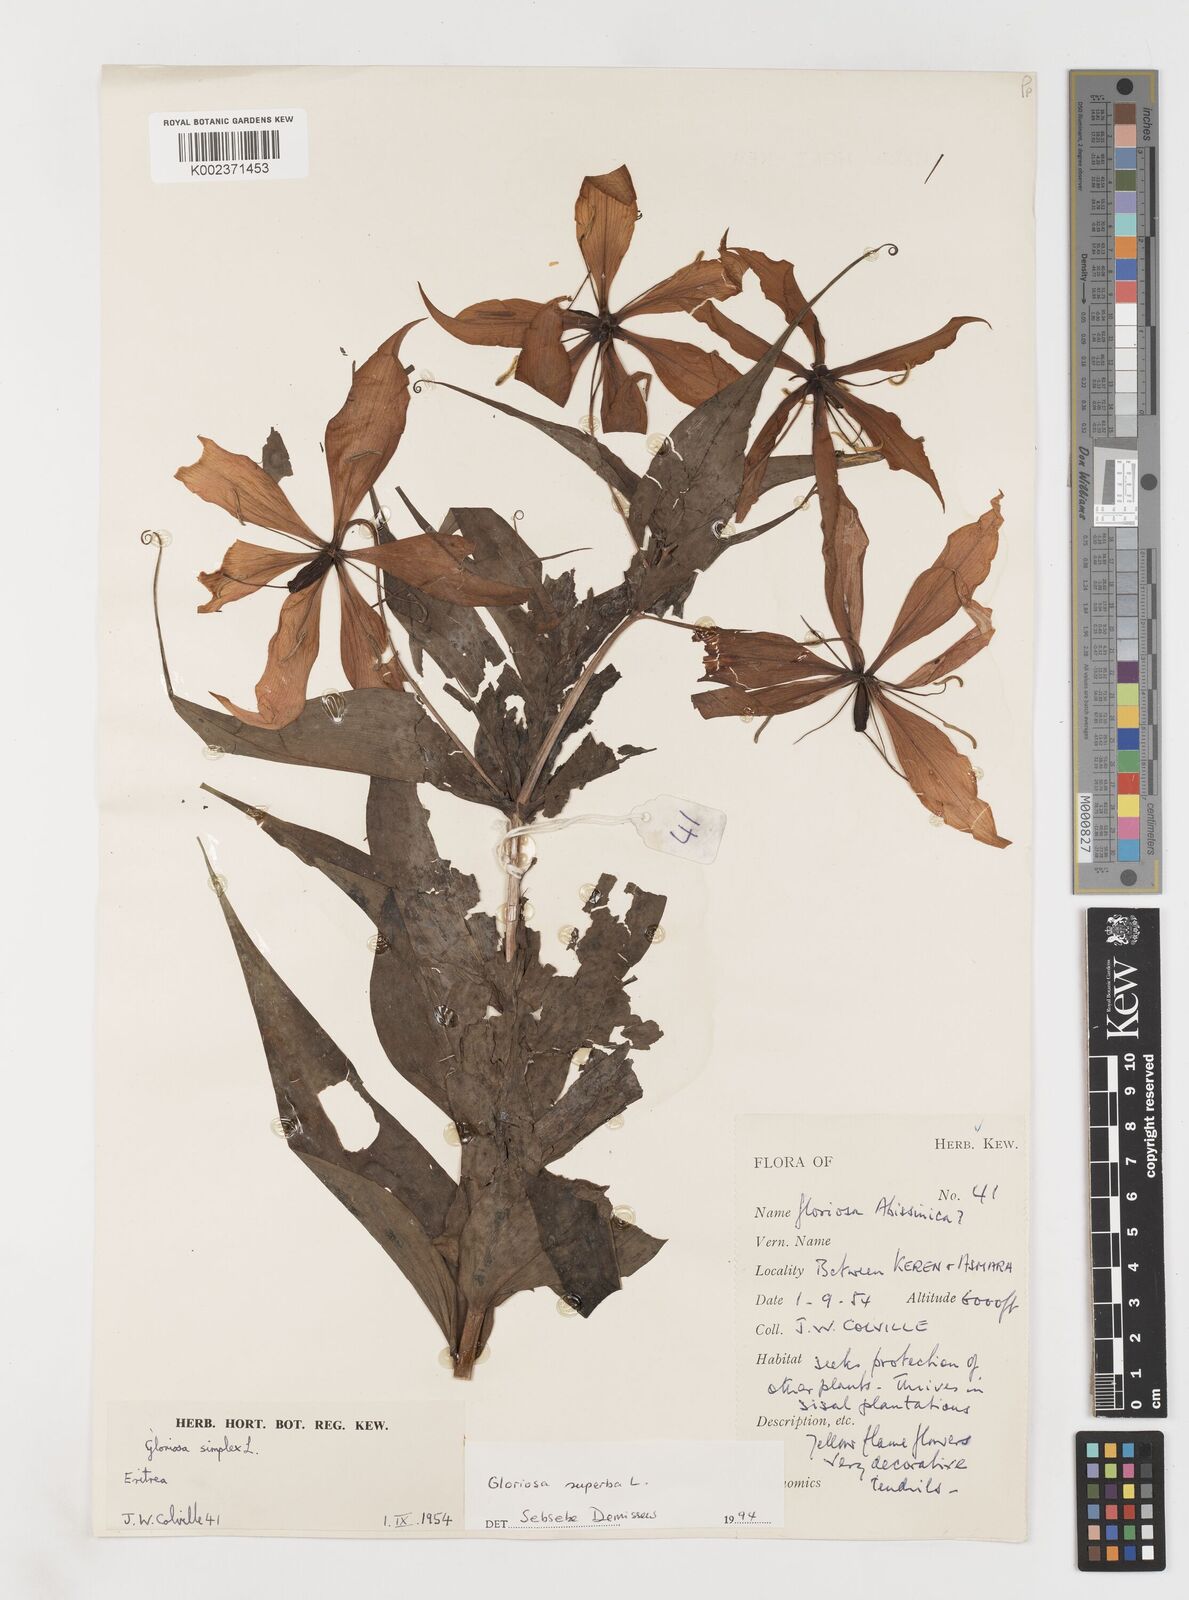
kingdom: Plantae
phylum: Tracheophyta
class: Liliopsida
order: Liliales
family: Colchicaceae
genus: Gloriosa
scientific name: Gloriosa simplex
